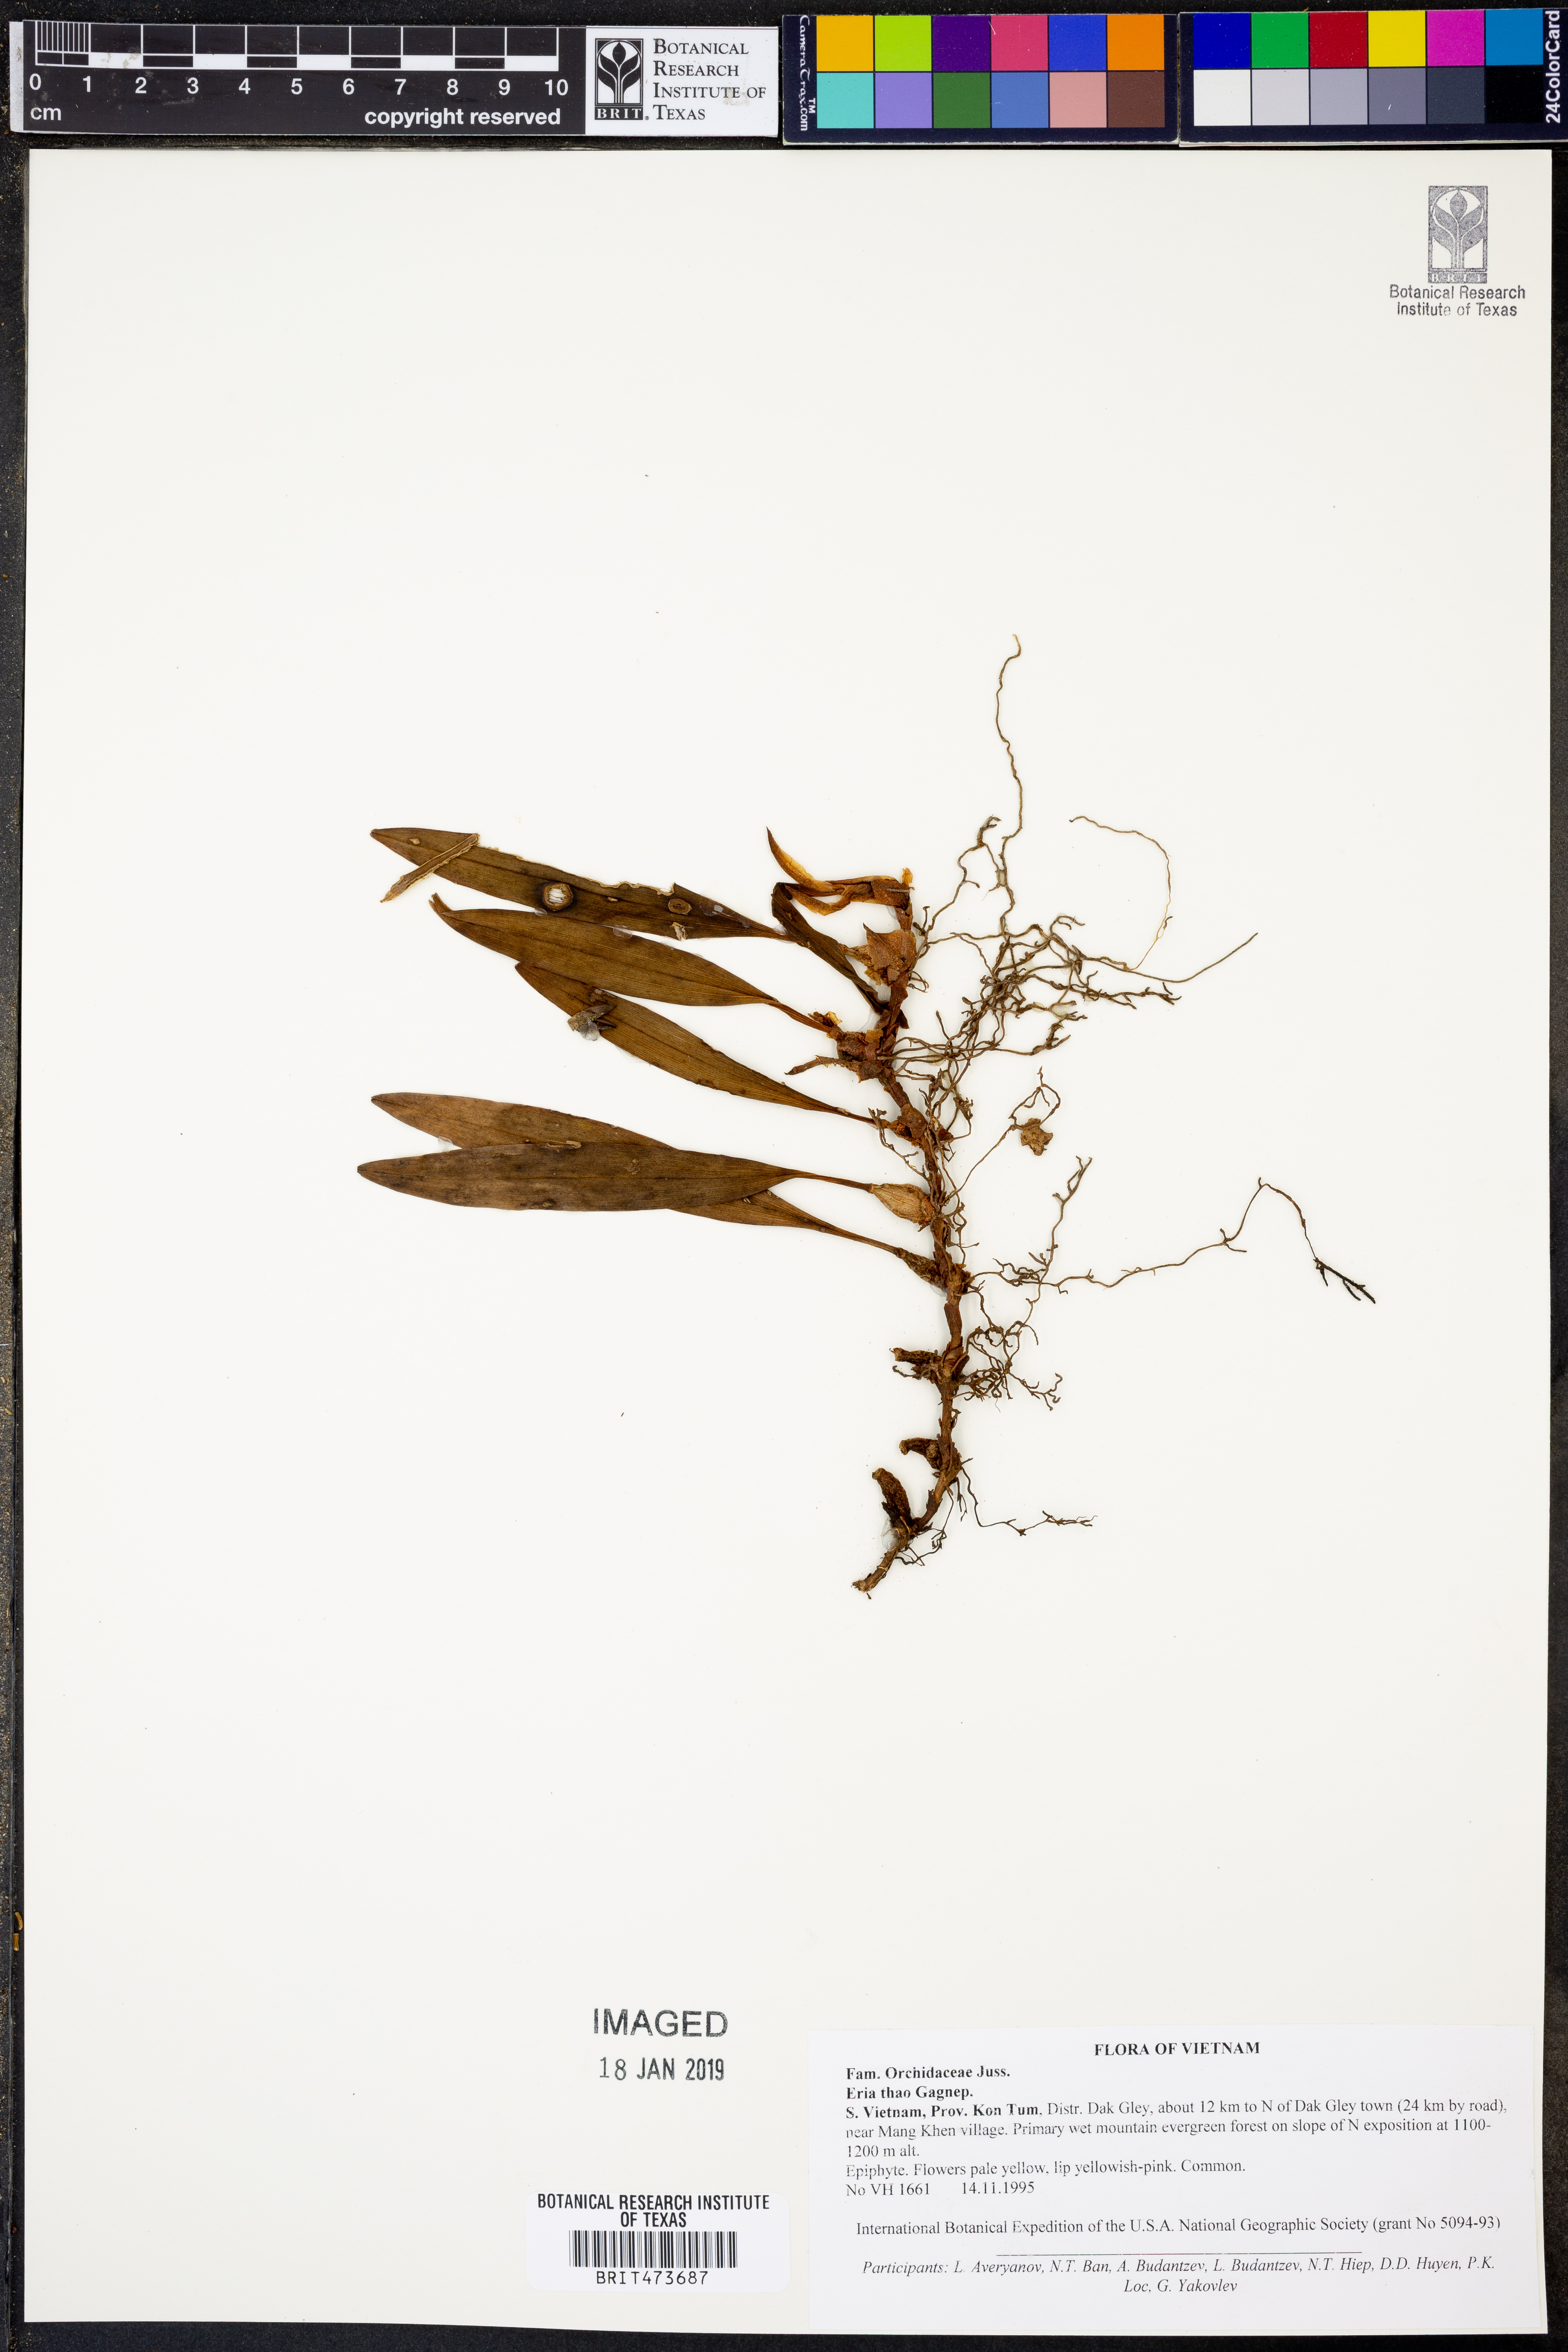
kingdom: Plantae
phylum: Tracheophyta
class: Liliopsida
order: Asparagales
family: Orchidaceae
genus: Campanulorchis
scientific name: Campanulorchis thao
